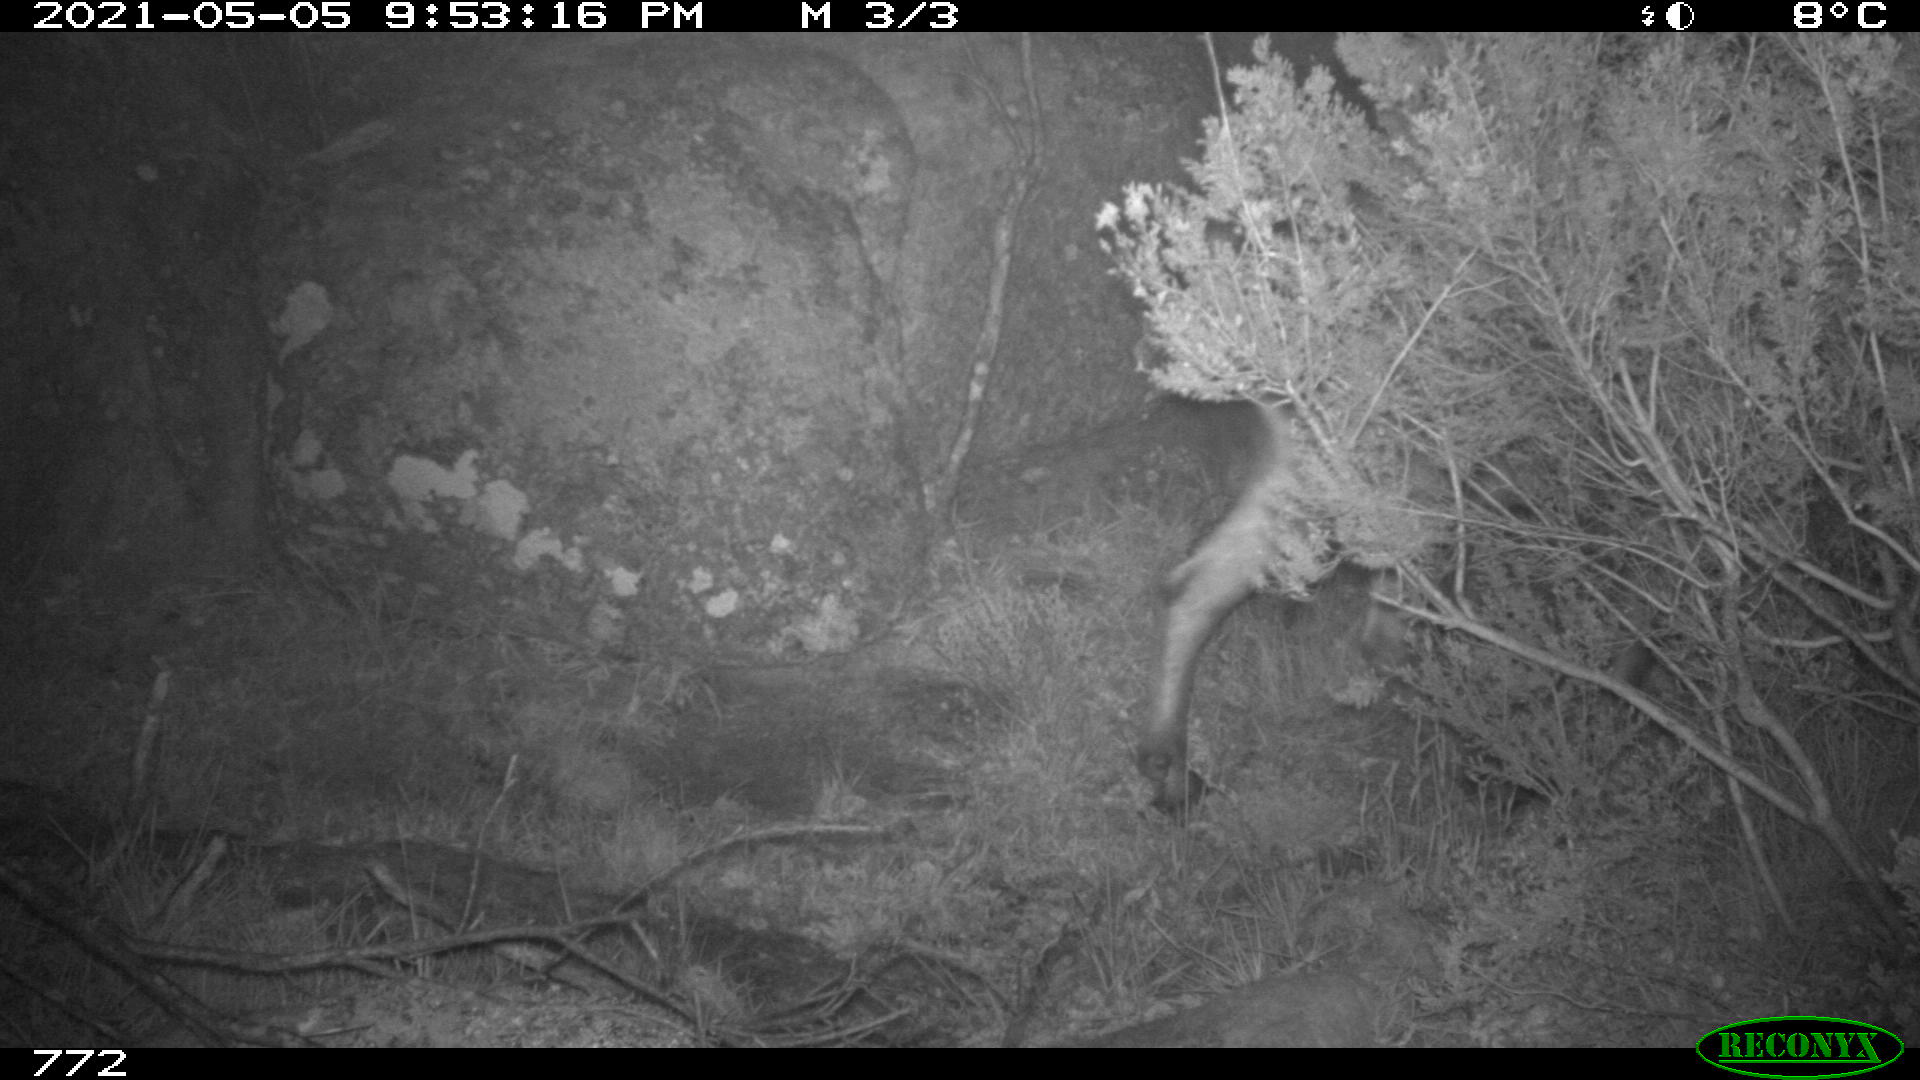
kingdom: Animalia
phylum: Chordata
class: Mammalia
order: Artiodactyla
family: Bovidae
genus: Capra
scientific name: Capra pyrenaica
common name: Spanish ibex
